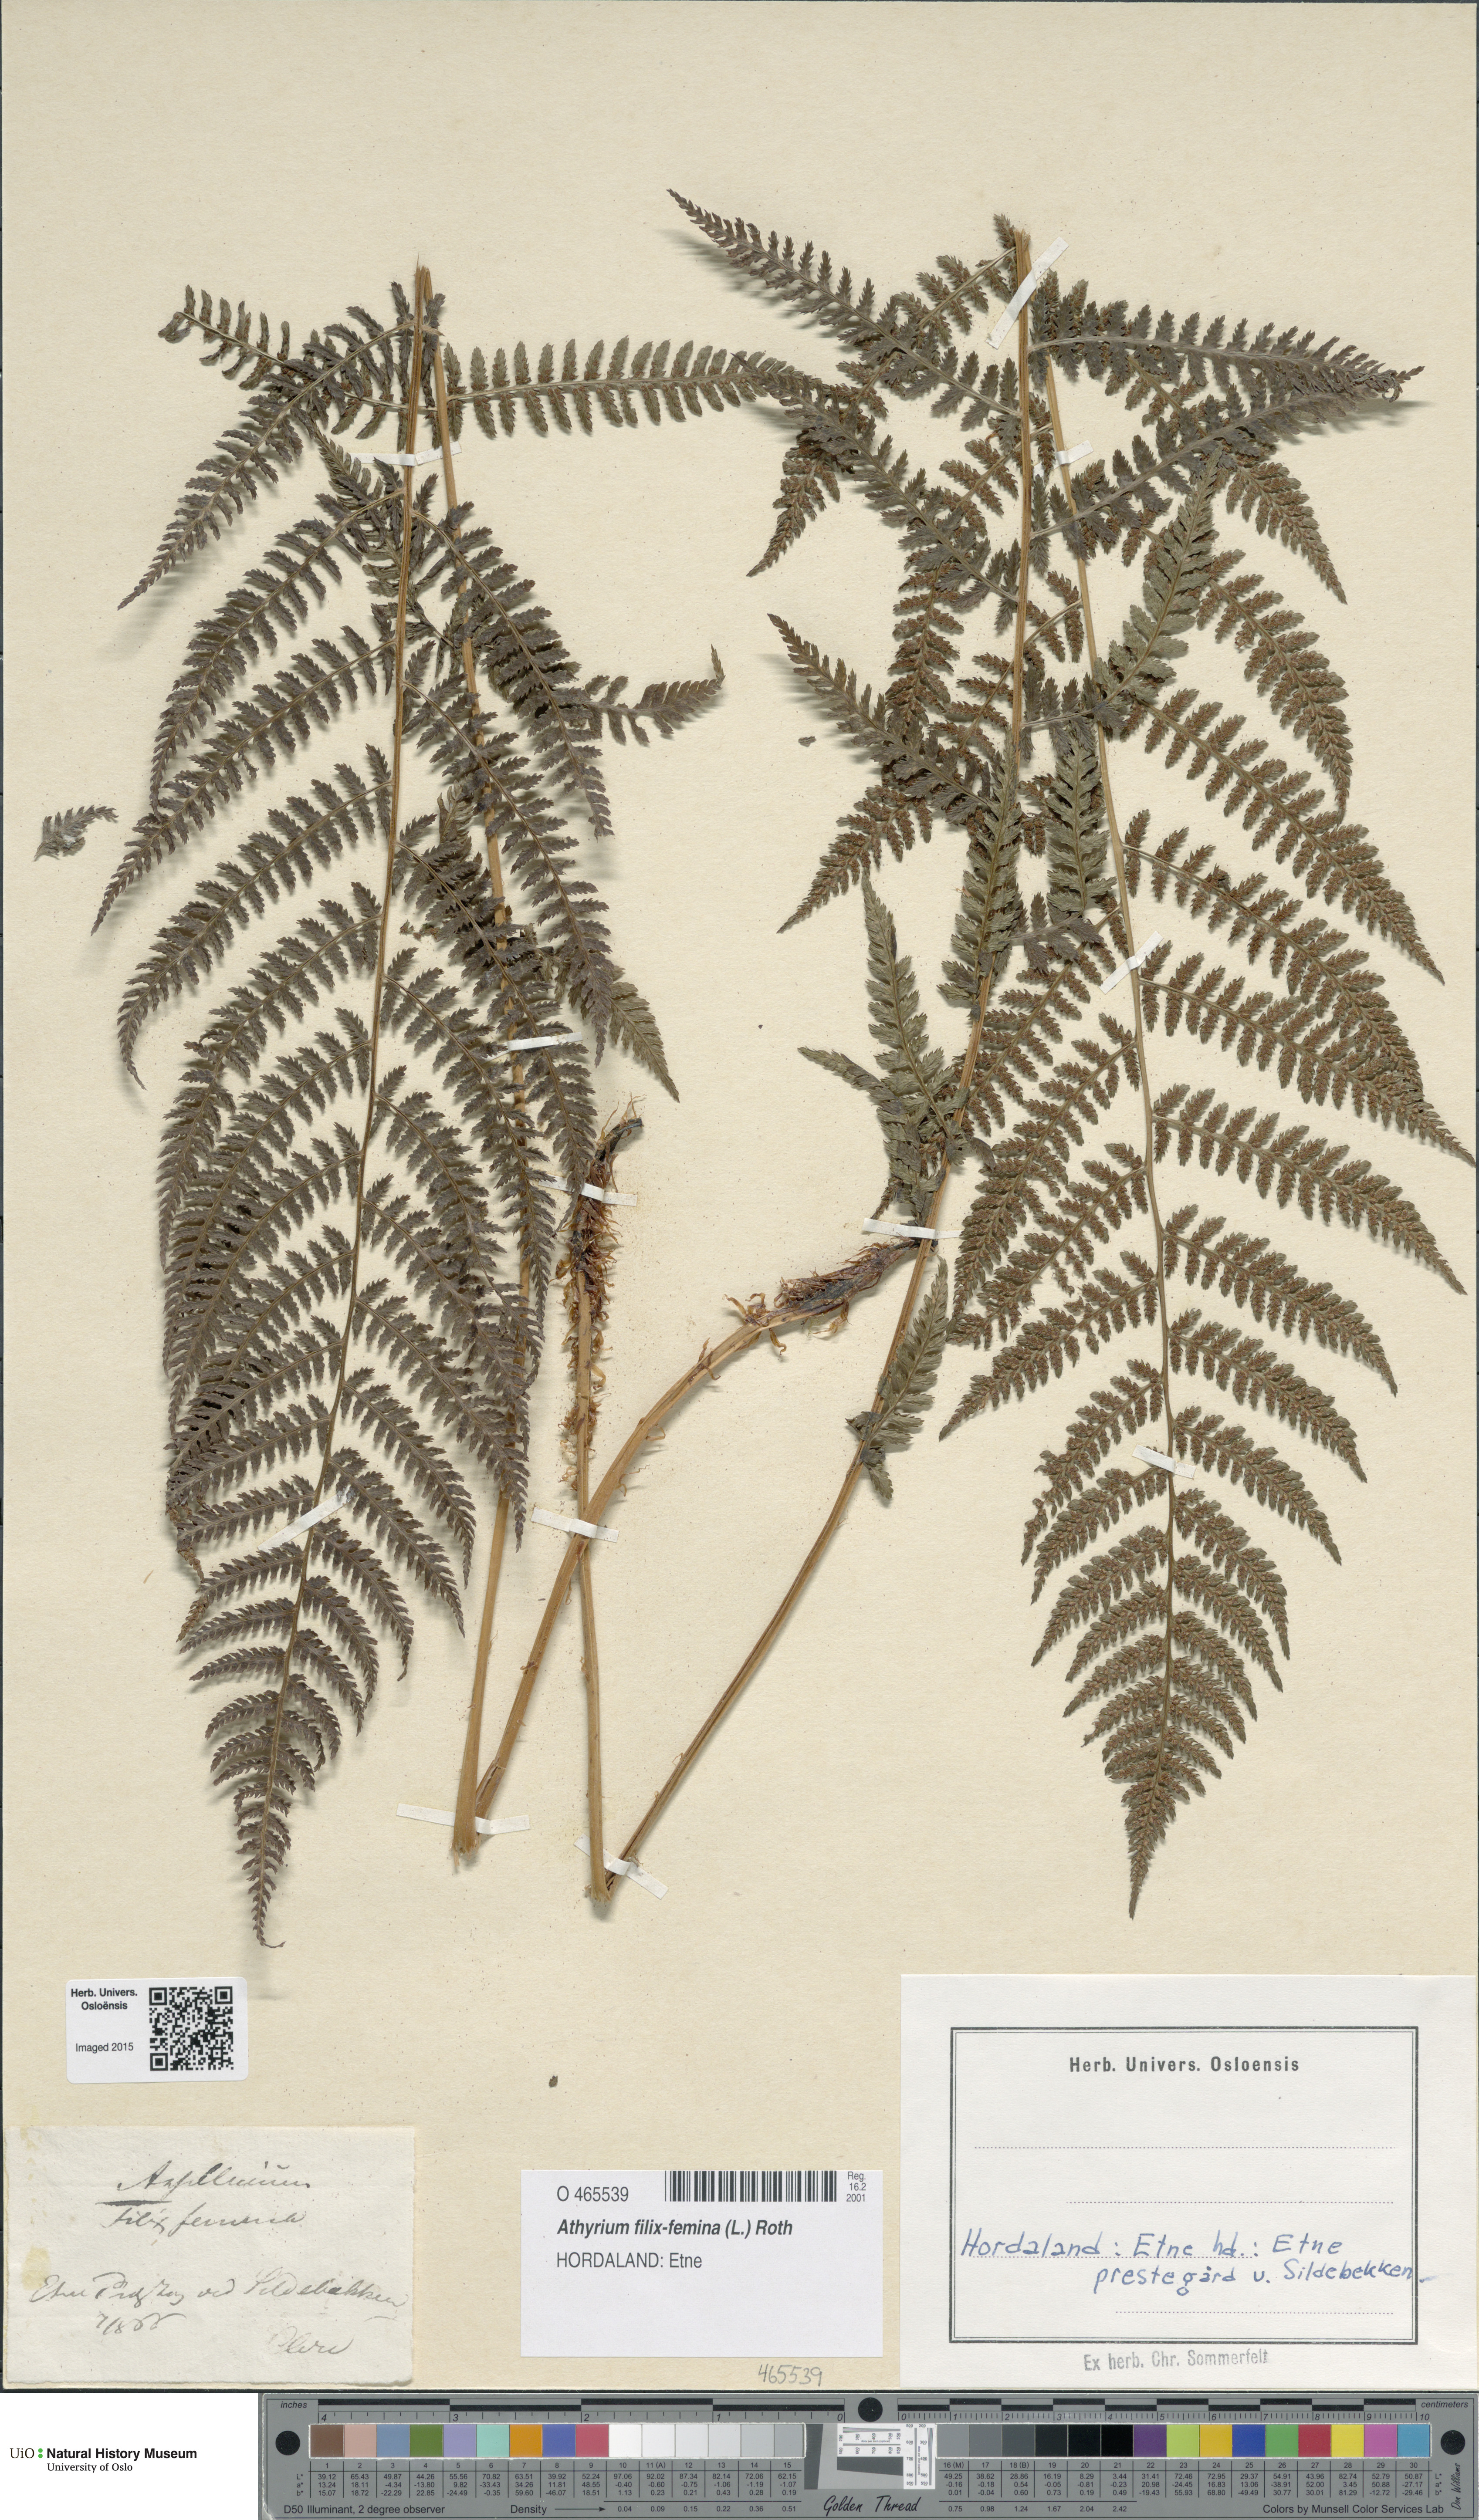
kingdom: Plantae
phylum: Tracheophyta
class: Polypodiopsida
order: Polypodiales
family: Athyriaceae
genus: Athyrium
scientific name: Athyrium filix-femina
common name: Lady fern
